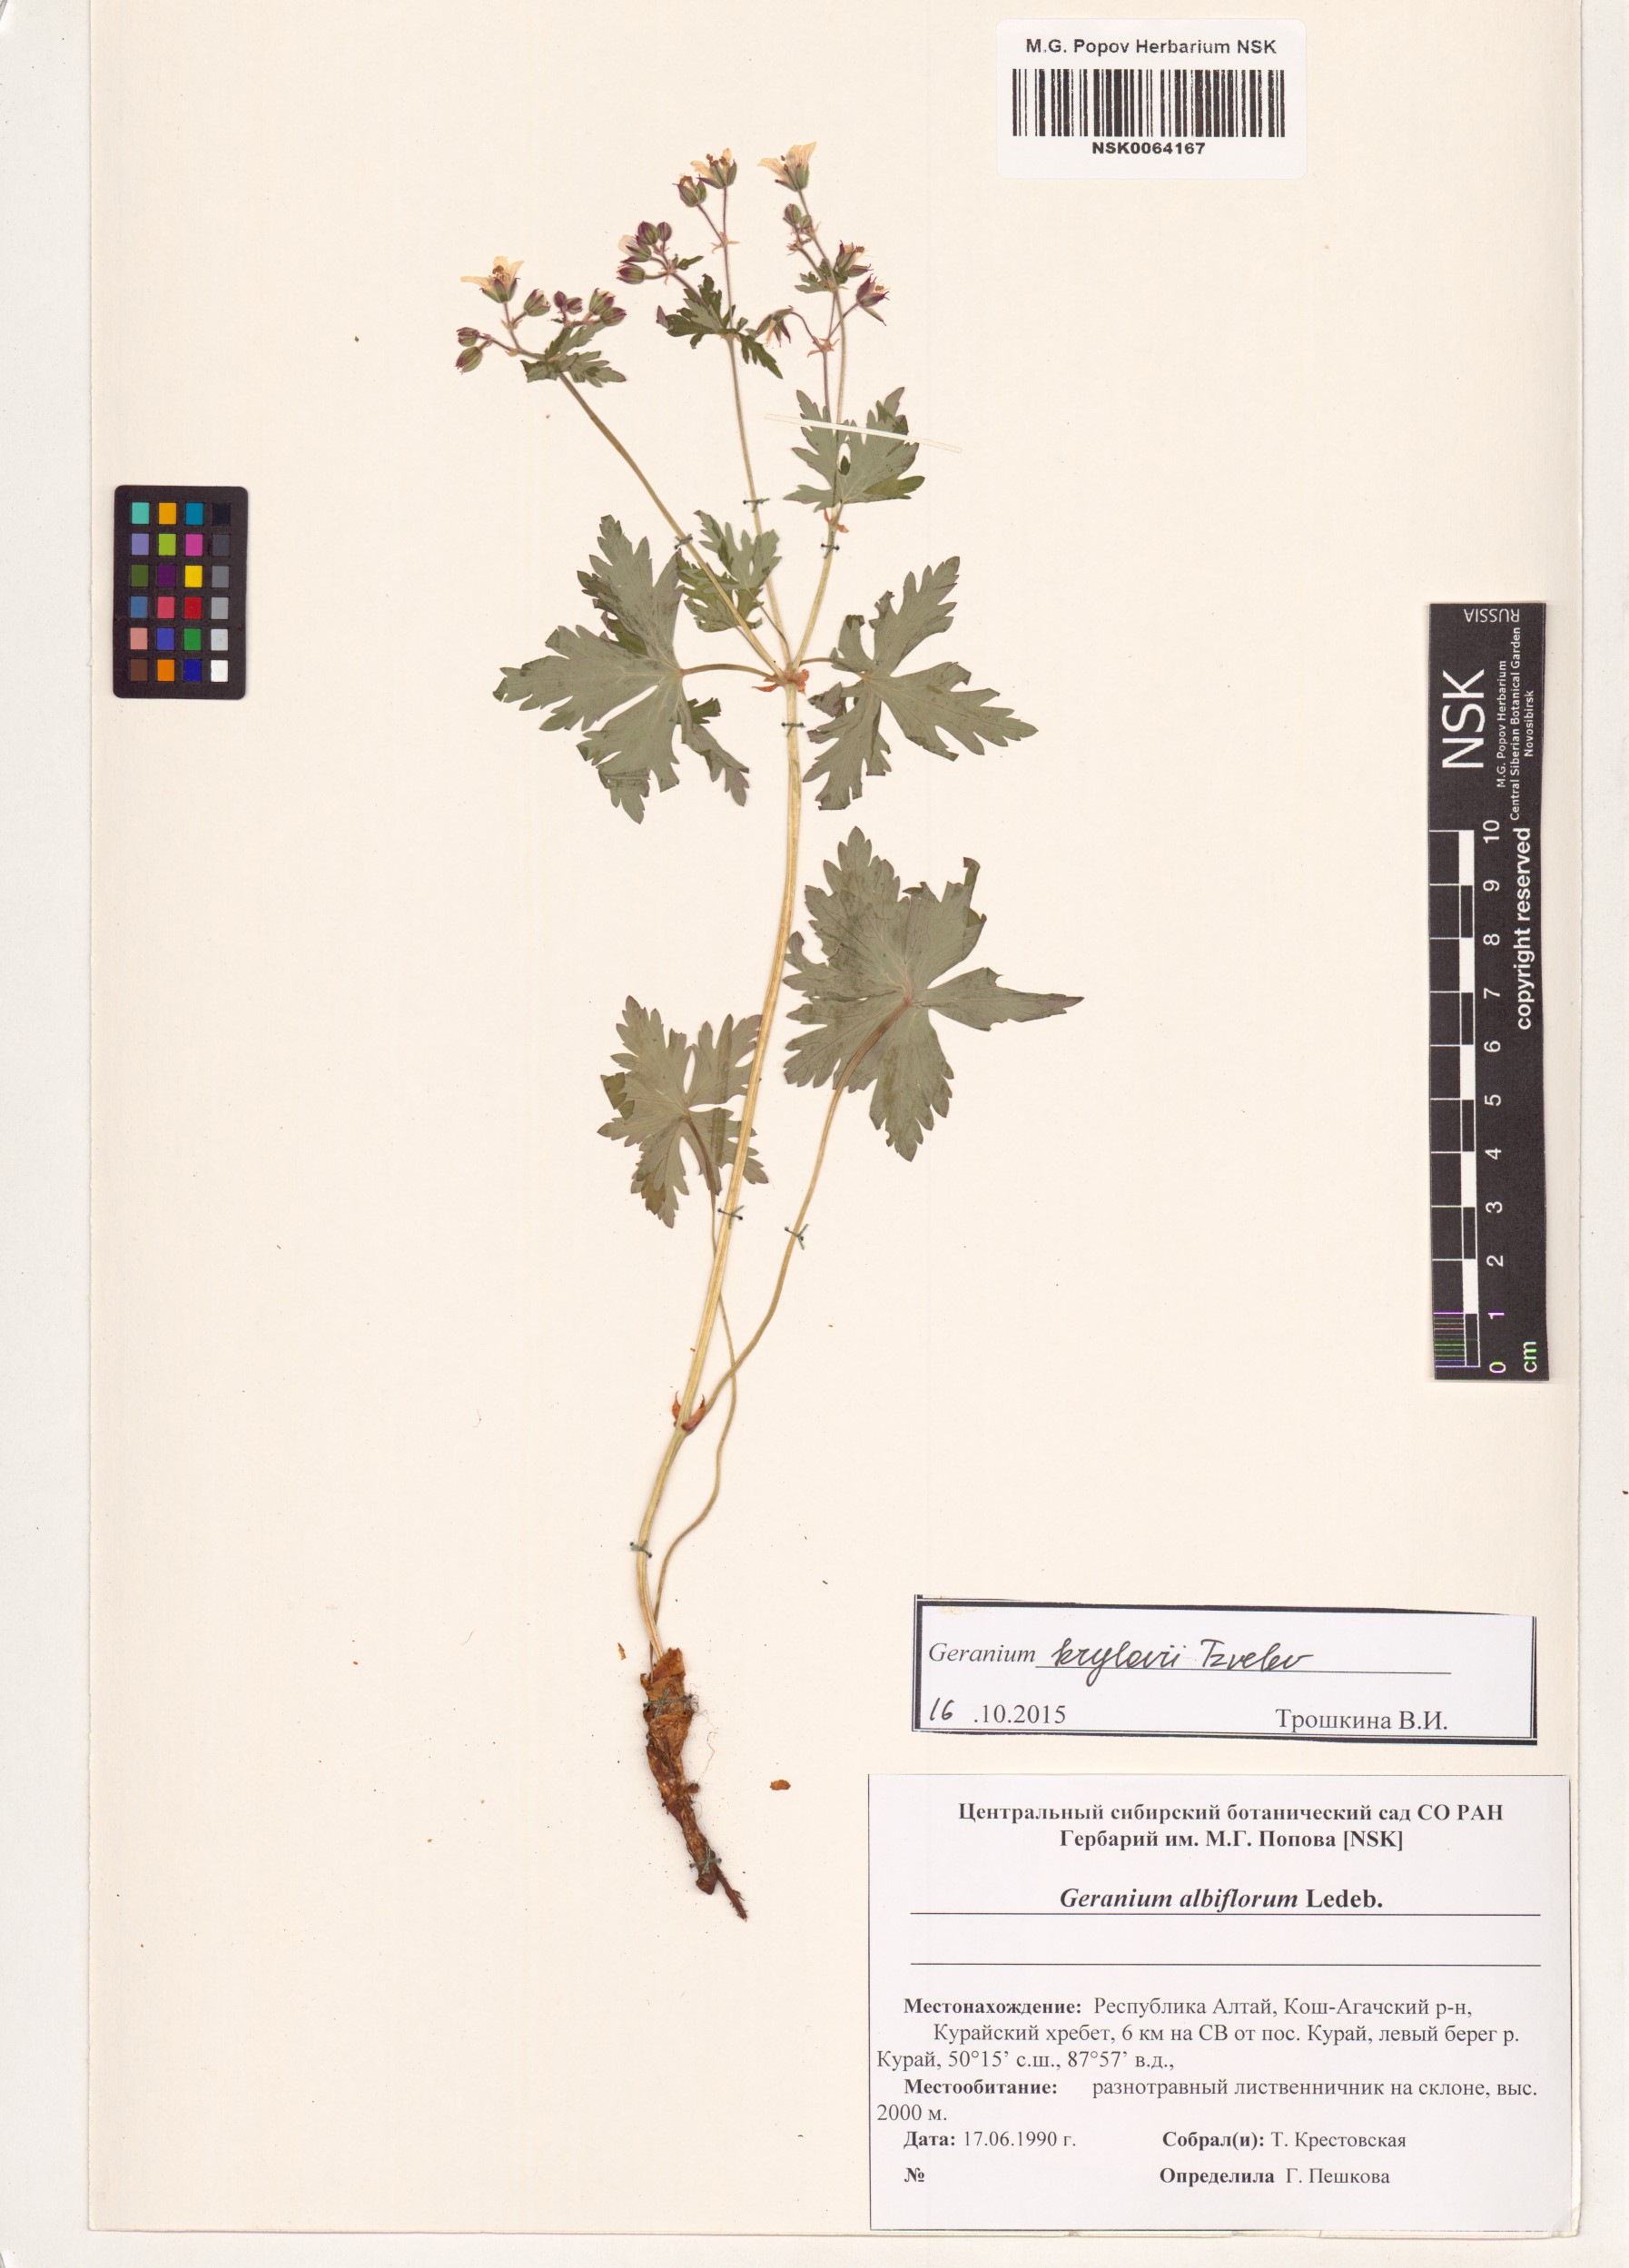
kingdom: Plantae
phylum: Tracheophyta
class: Magnoliopsida
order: Geraniales
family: Geraniaceae
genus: Geranium
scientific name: Geranium sylvaticum
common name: Wood crane's-bill
